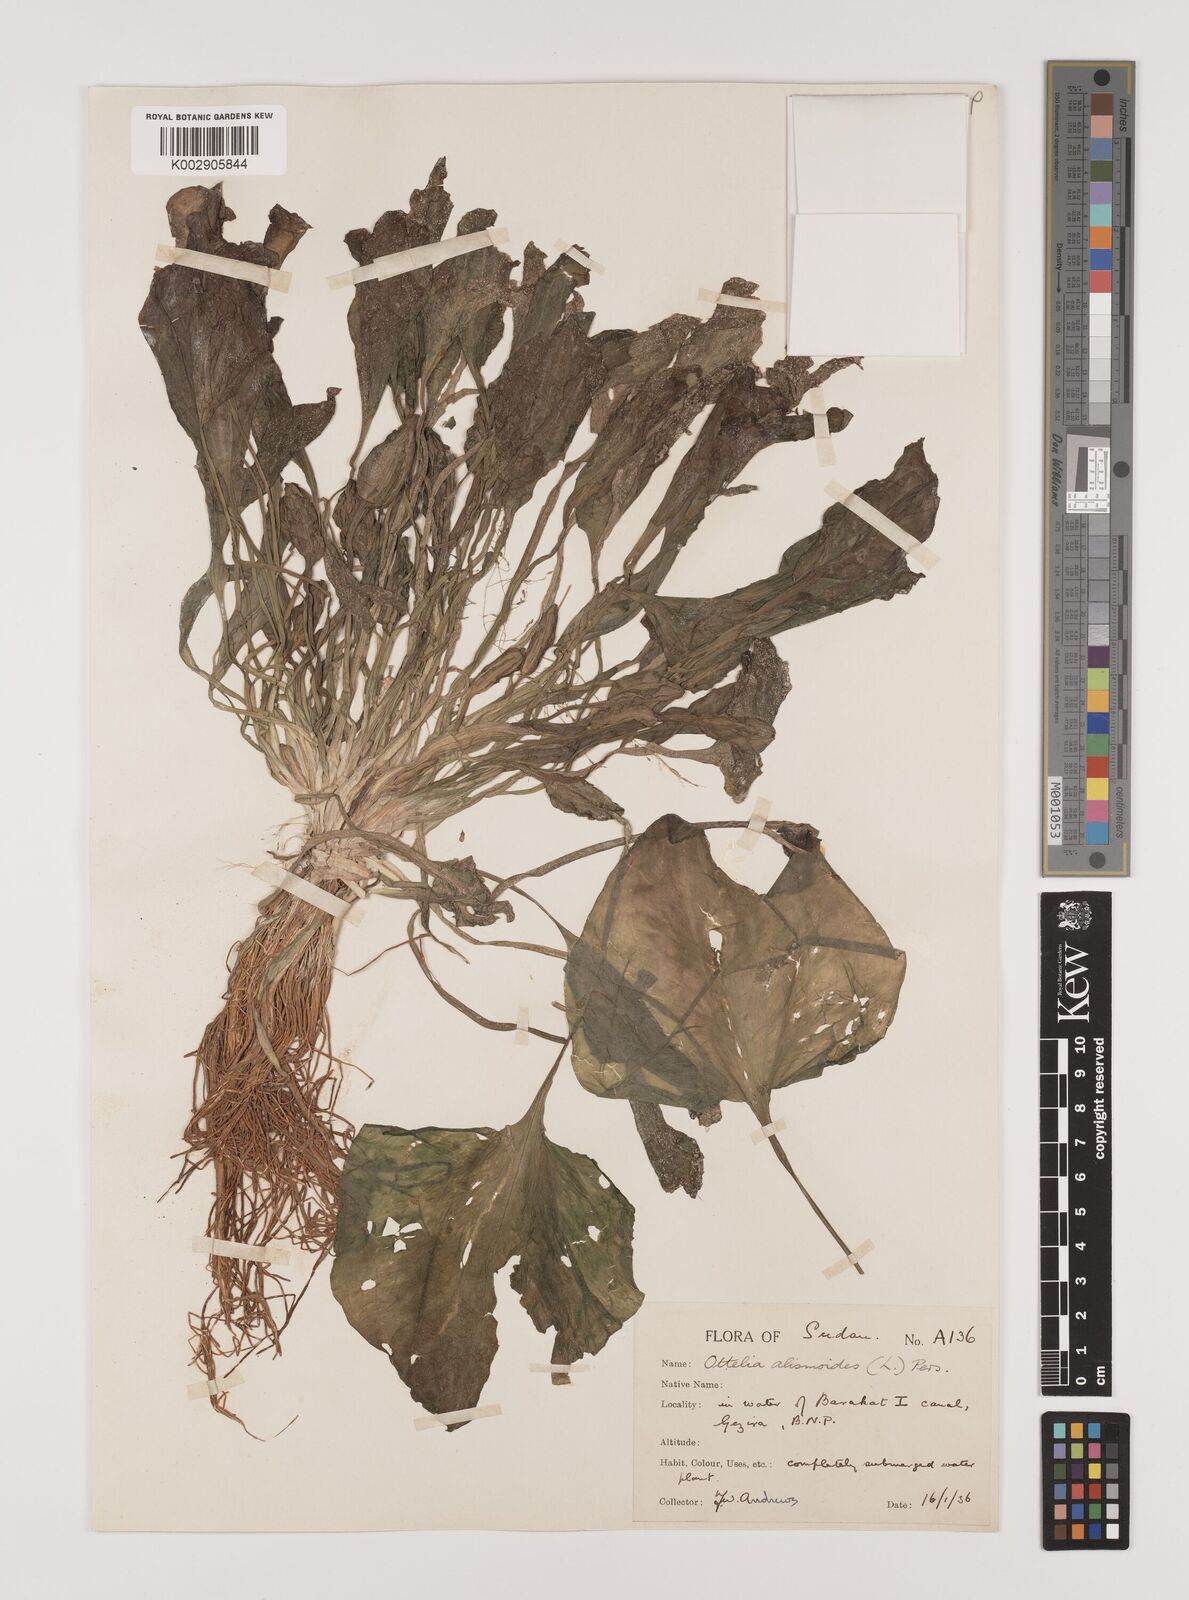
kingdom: Plantae
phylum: Tracheophyta
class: Liliopsida
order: Alismatales
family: Hydrocharitaceae
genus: Ottelia
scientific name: Ottelia alismoides
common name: Duck-lettuce
